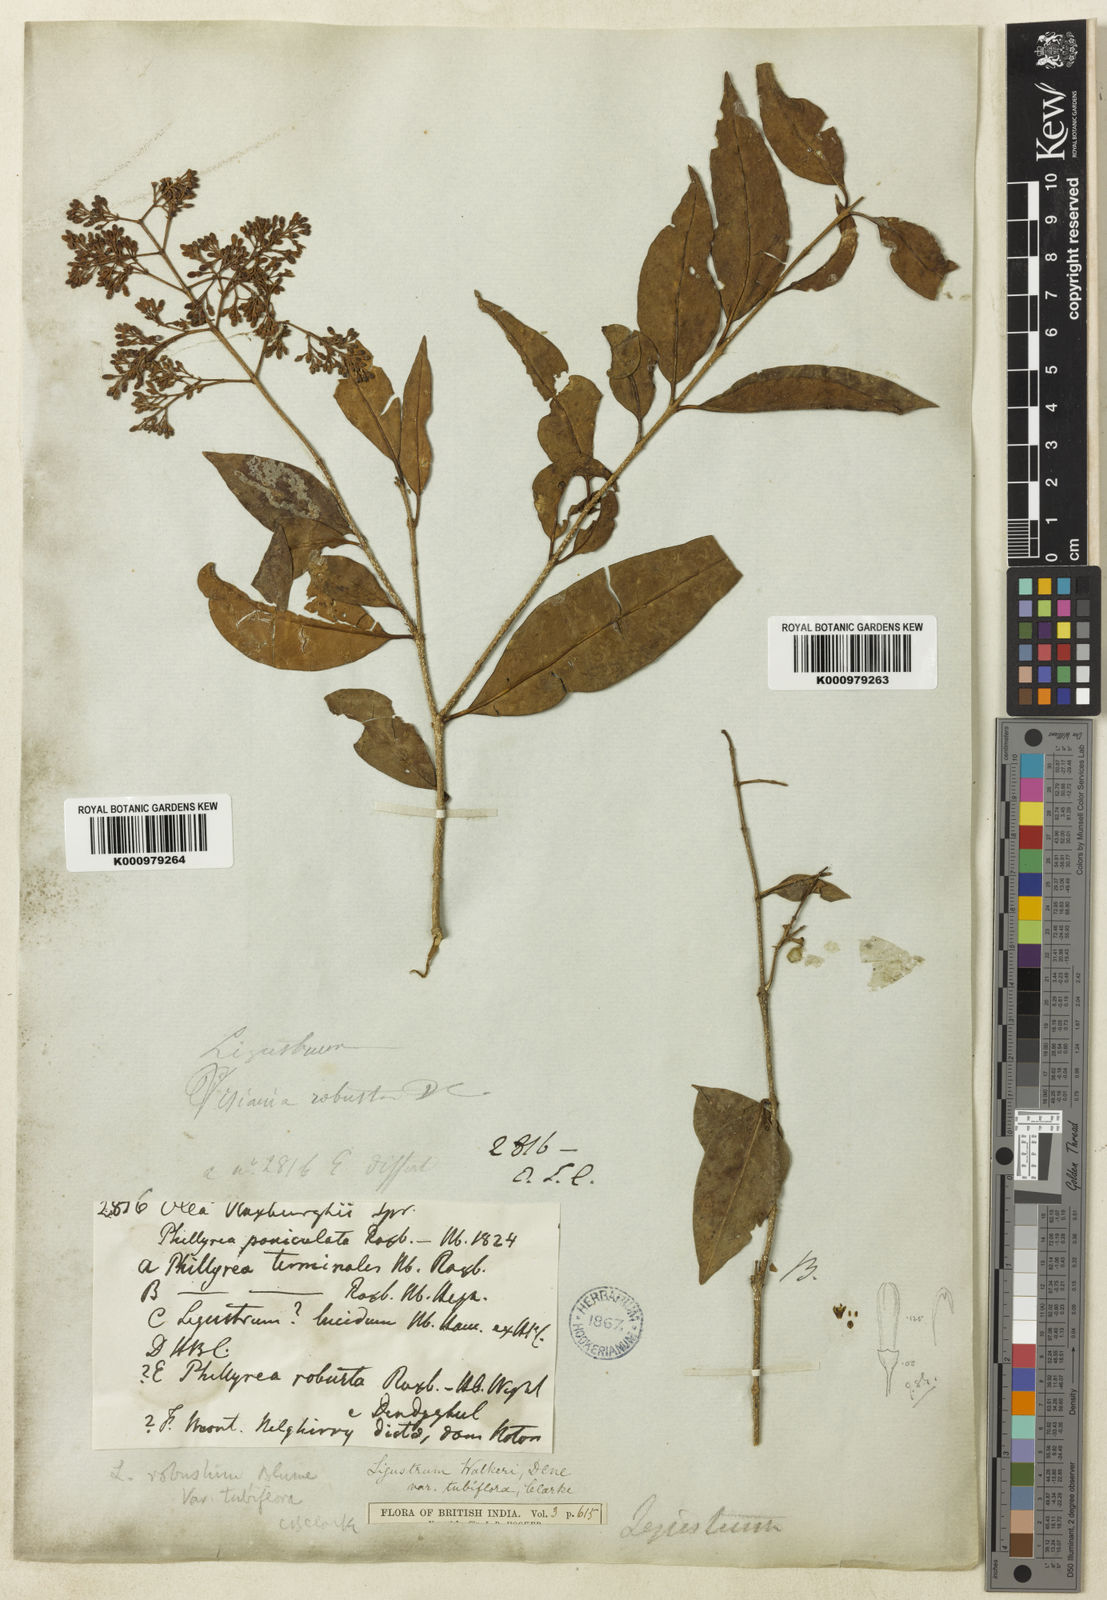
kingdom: Plantae
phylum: Tracheophyta
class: Magnoliopsida
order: Lamiales
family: Oleaceae
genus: Ligustrum
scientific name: Ligustrum robustum
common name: Tree privet
